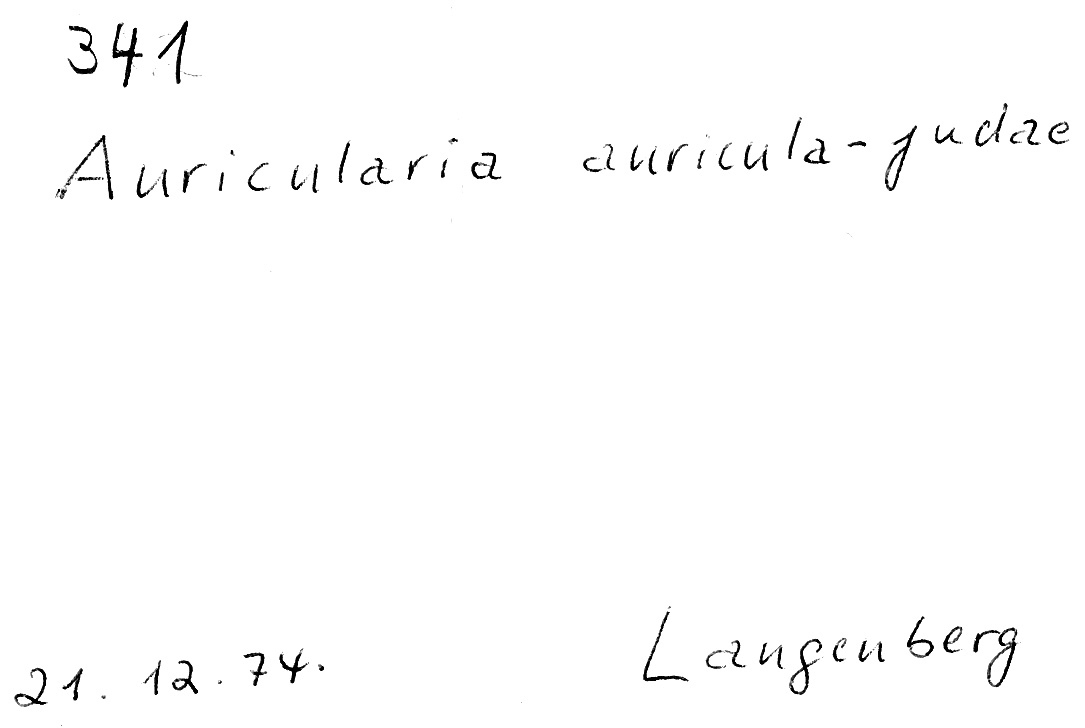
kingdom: Fungi
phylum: Basidiomycota
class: Agaricomycetes
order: Auriculariales
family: Auriculariaceae
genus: Auricularia
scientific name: Auricularia auricula-judae
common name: Jelly ear
